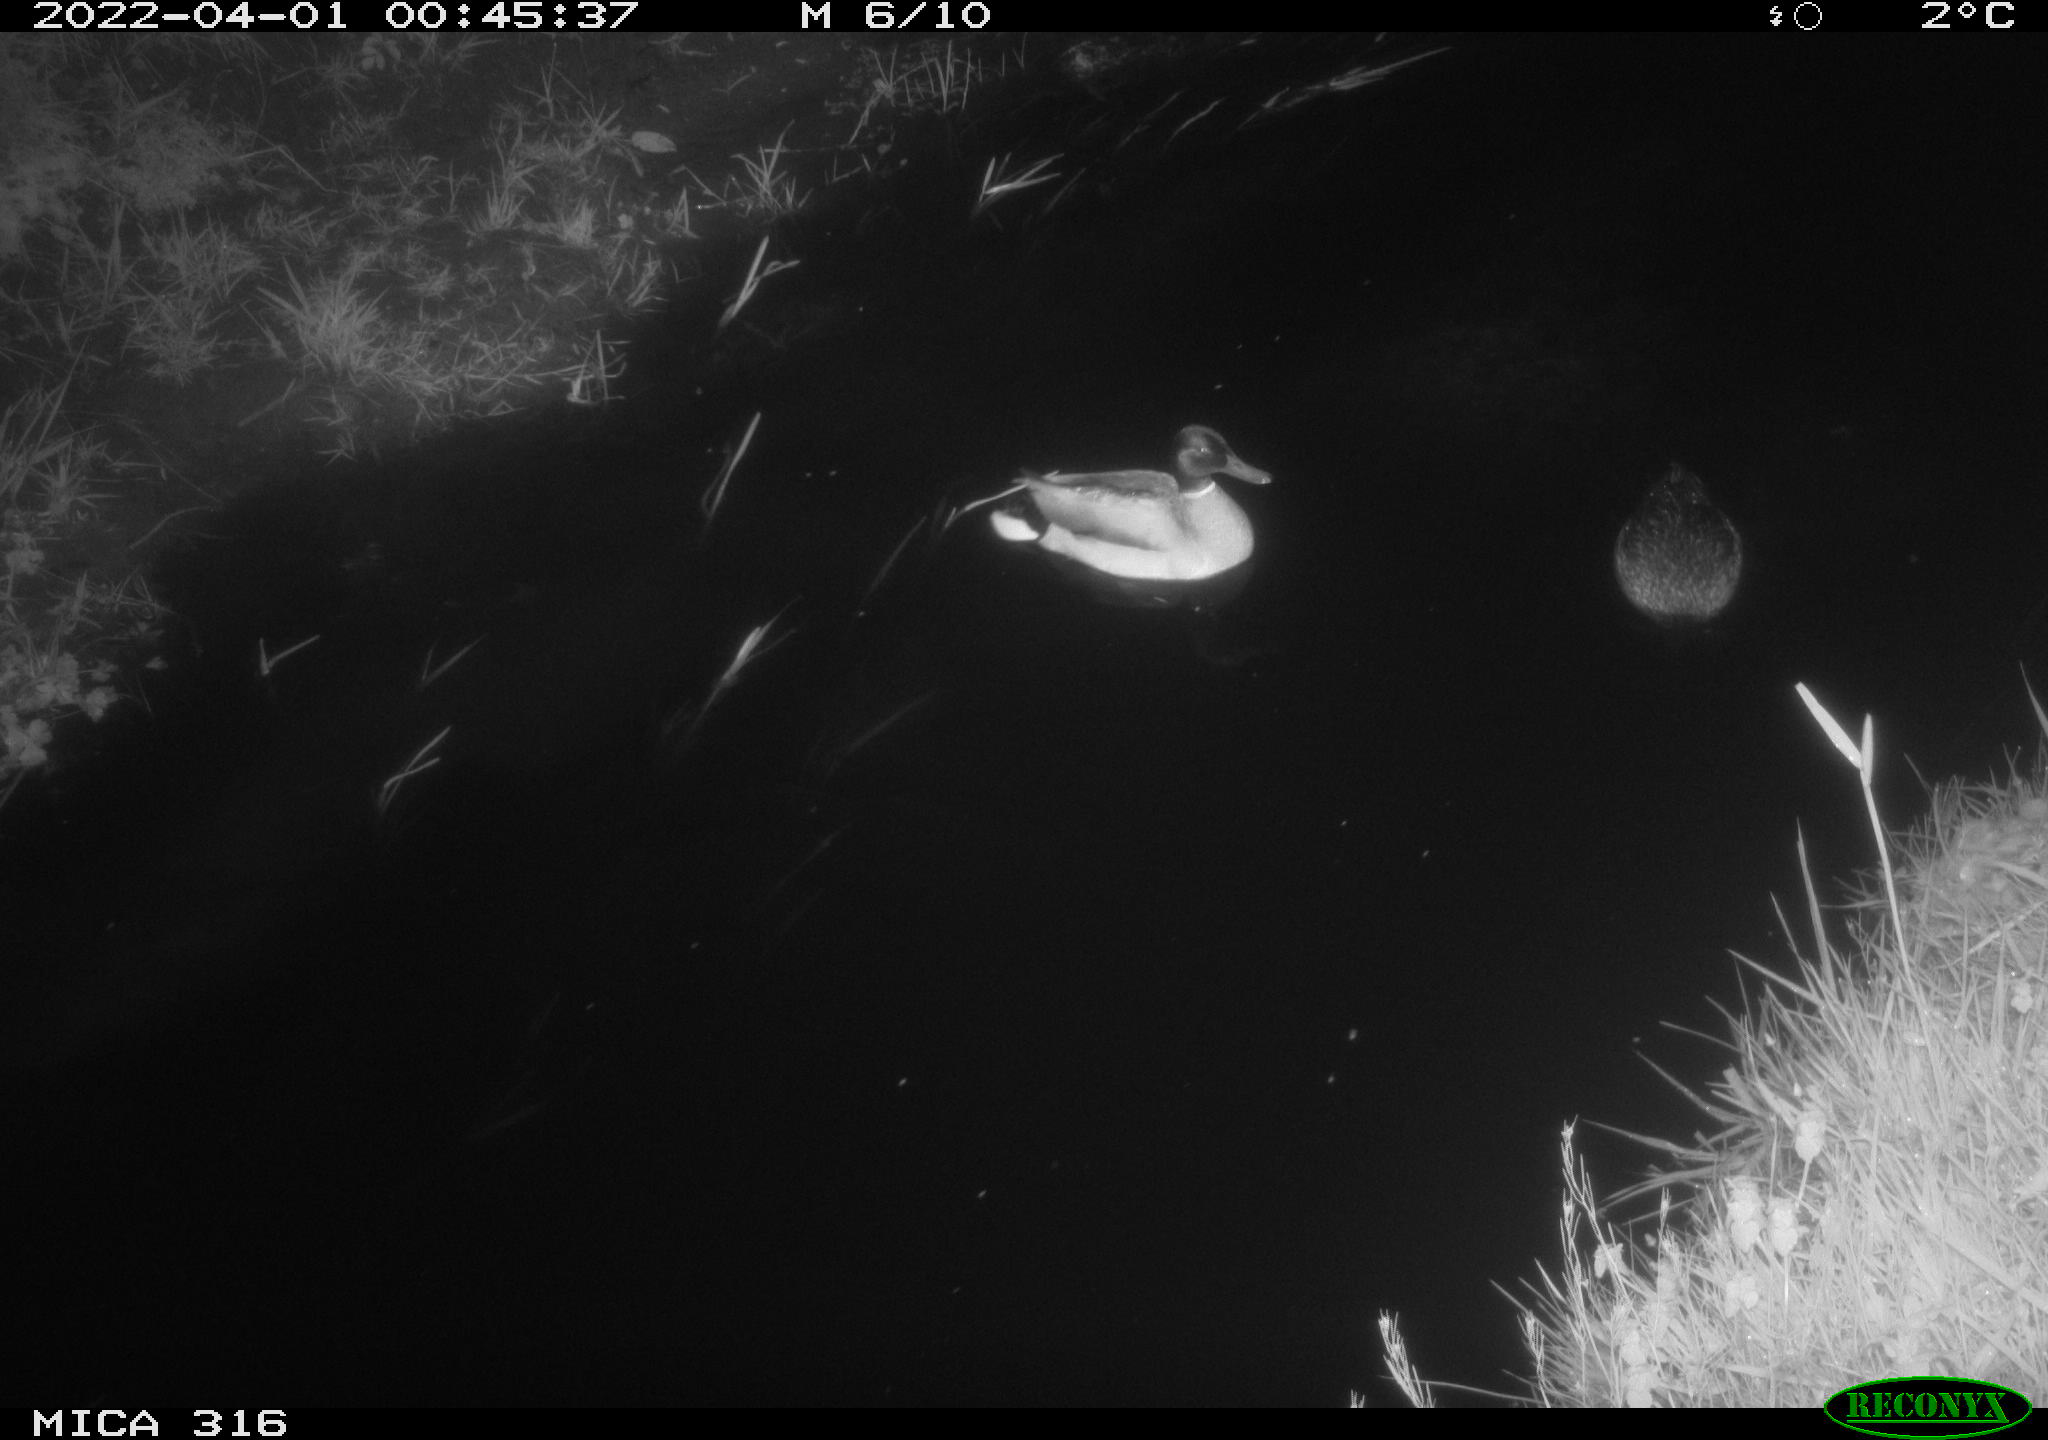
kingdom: Animalia
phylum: Chordata
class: Aves
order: Anseriformes
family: Anatidae
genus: Anas
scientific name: Anas platyrhynchos
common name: Mallard
